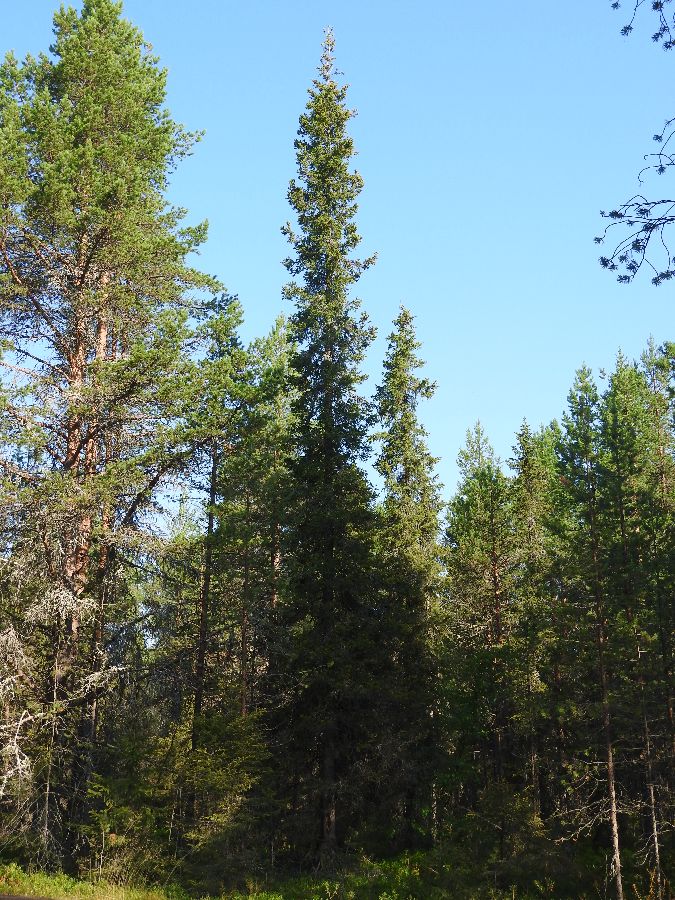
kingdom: Plantae
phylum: Tracheophyta
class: Pinopsida
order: Pinales
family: Pinaceae
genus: Picea
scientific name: Picea obovata
